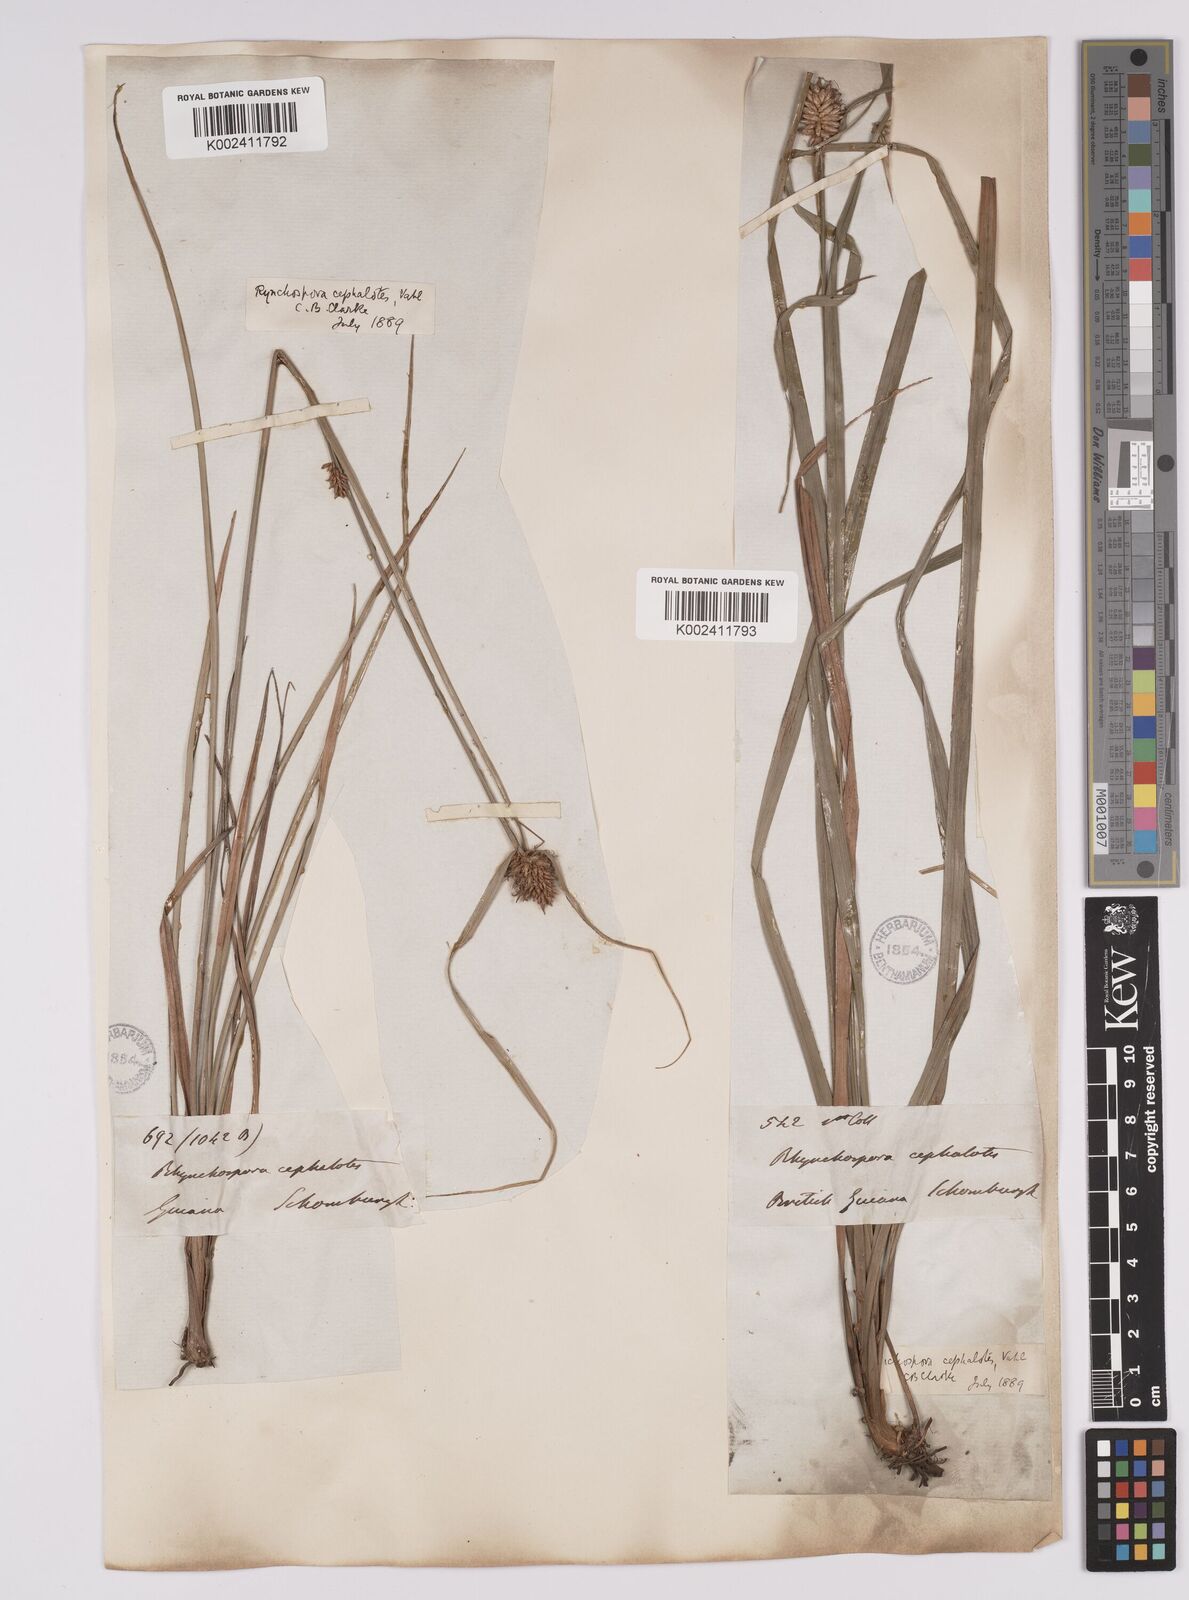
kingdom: Plantae
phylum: Tracheophyta
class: Liliopsida
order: Poales
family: Cyperaceae
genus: Rhynchospora
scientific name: Rhynchospora cephalotes
